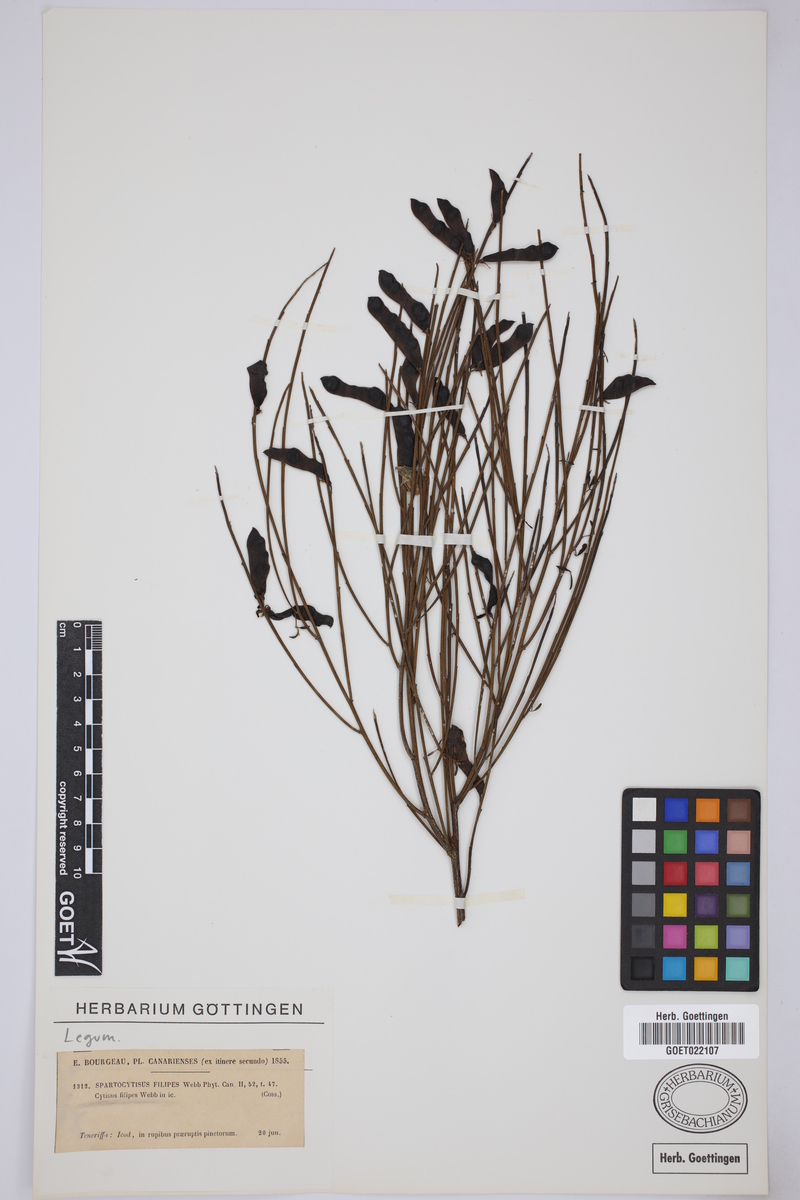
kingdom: Plantae
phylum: Tracheophyta
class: Magnoliopsida
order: Fabales
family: Fabaceae
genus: Cytisus
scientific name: Cytisus filipes
